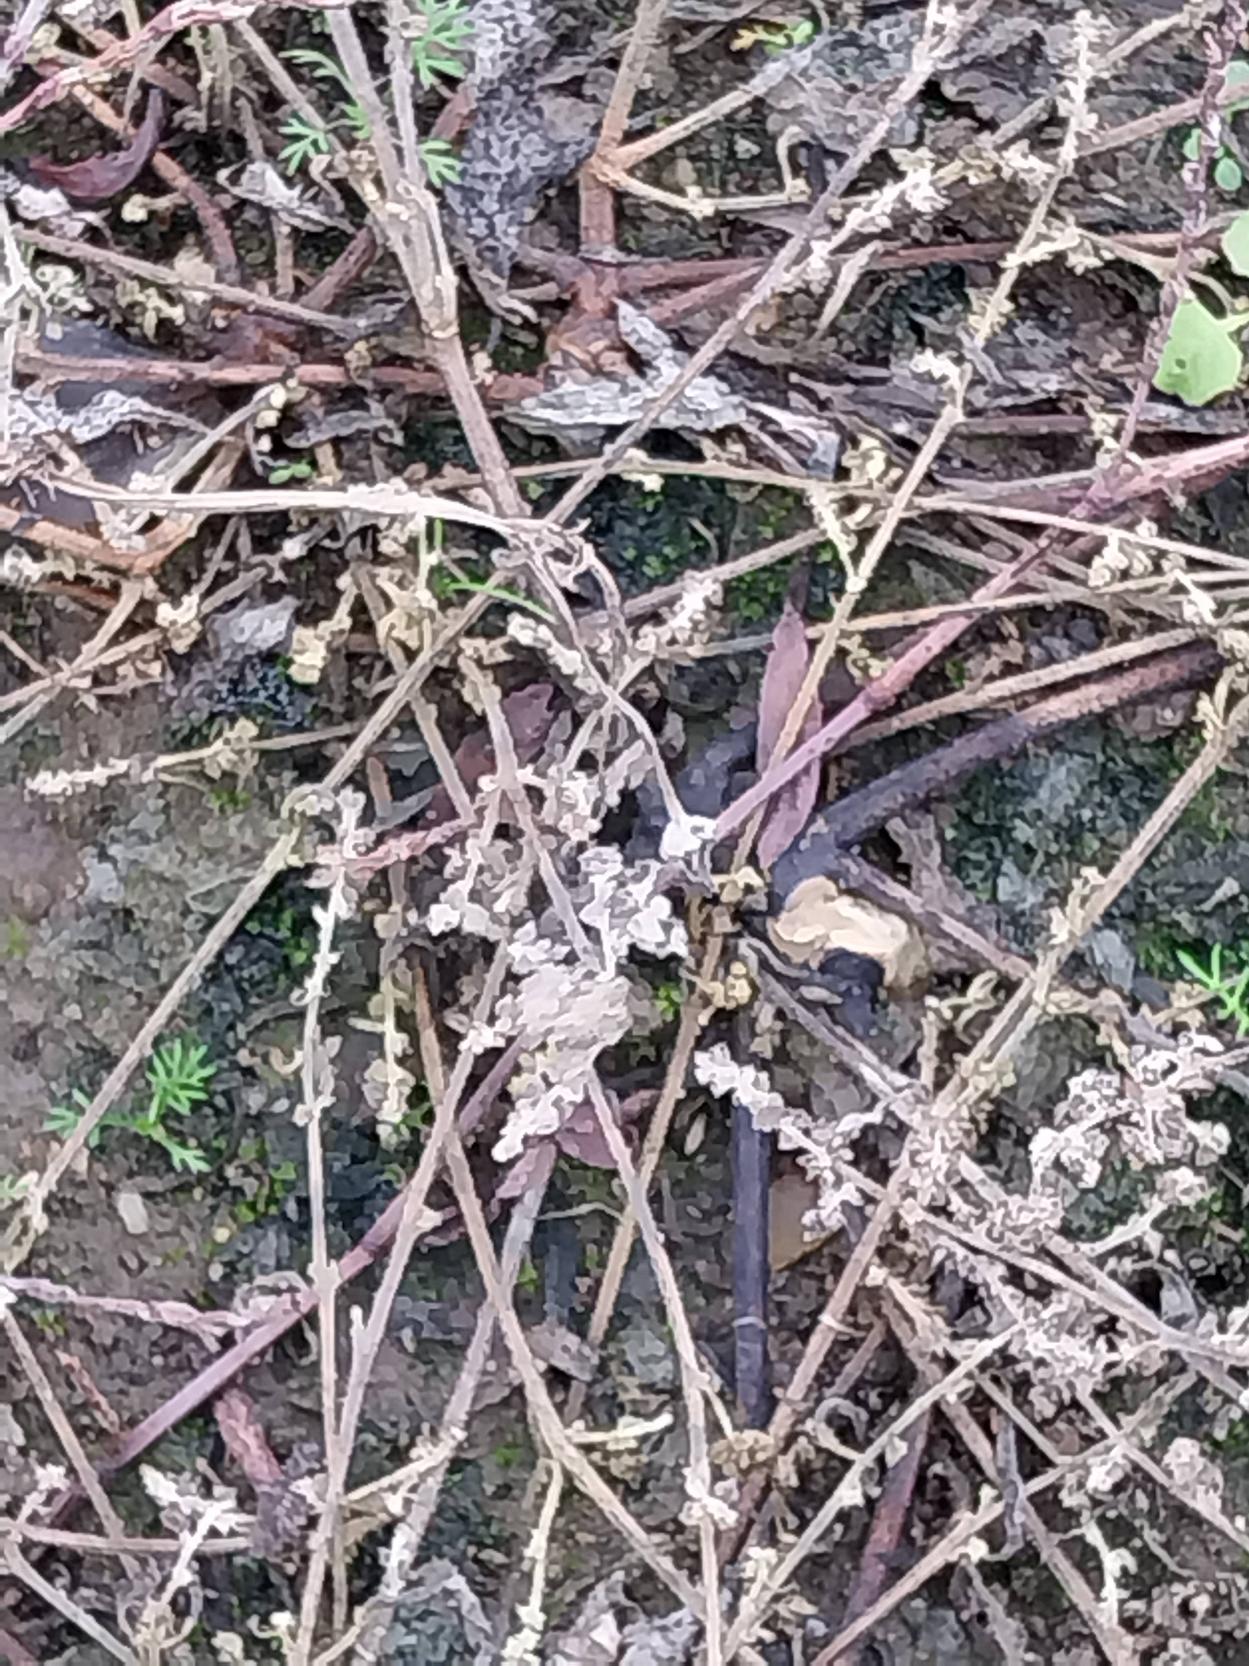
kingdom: Plantae
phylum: Tracheophyta
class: Magnoliopsida
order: Caryophyllales
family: Polygonaceae
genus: Polygonum
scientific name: Polygonum aviculare
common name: Vej-pileurt
